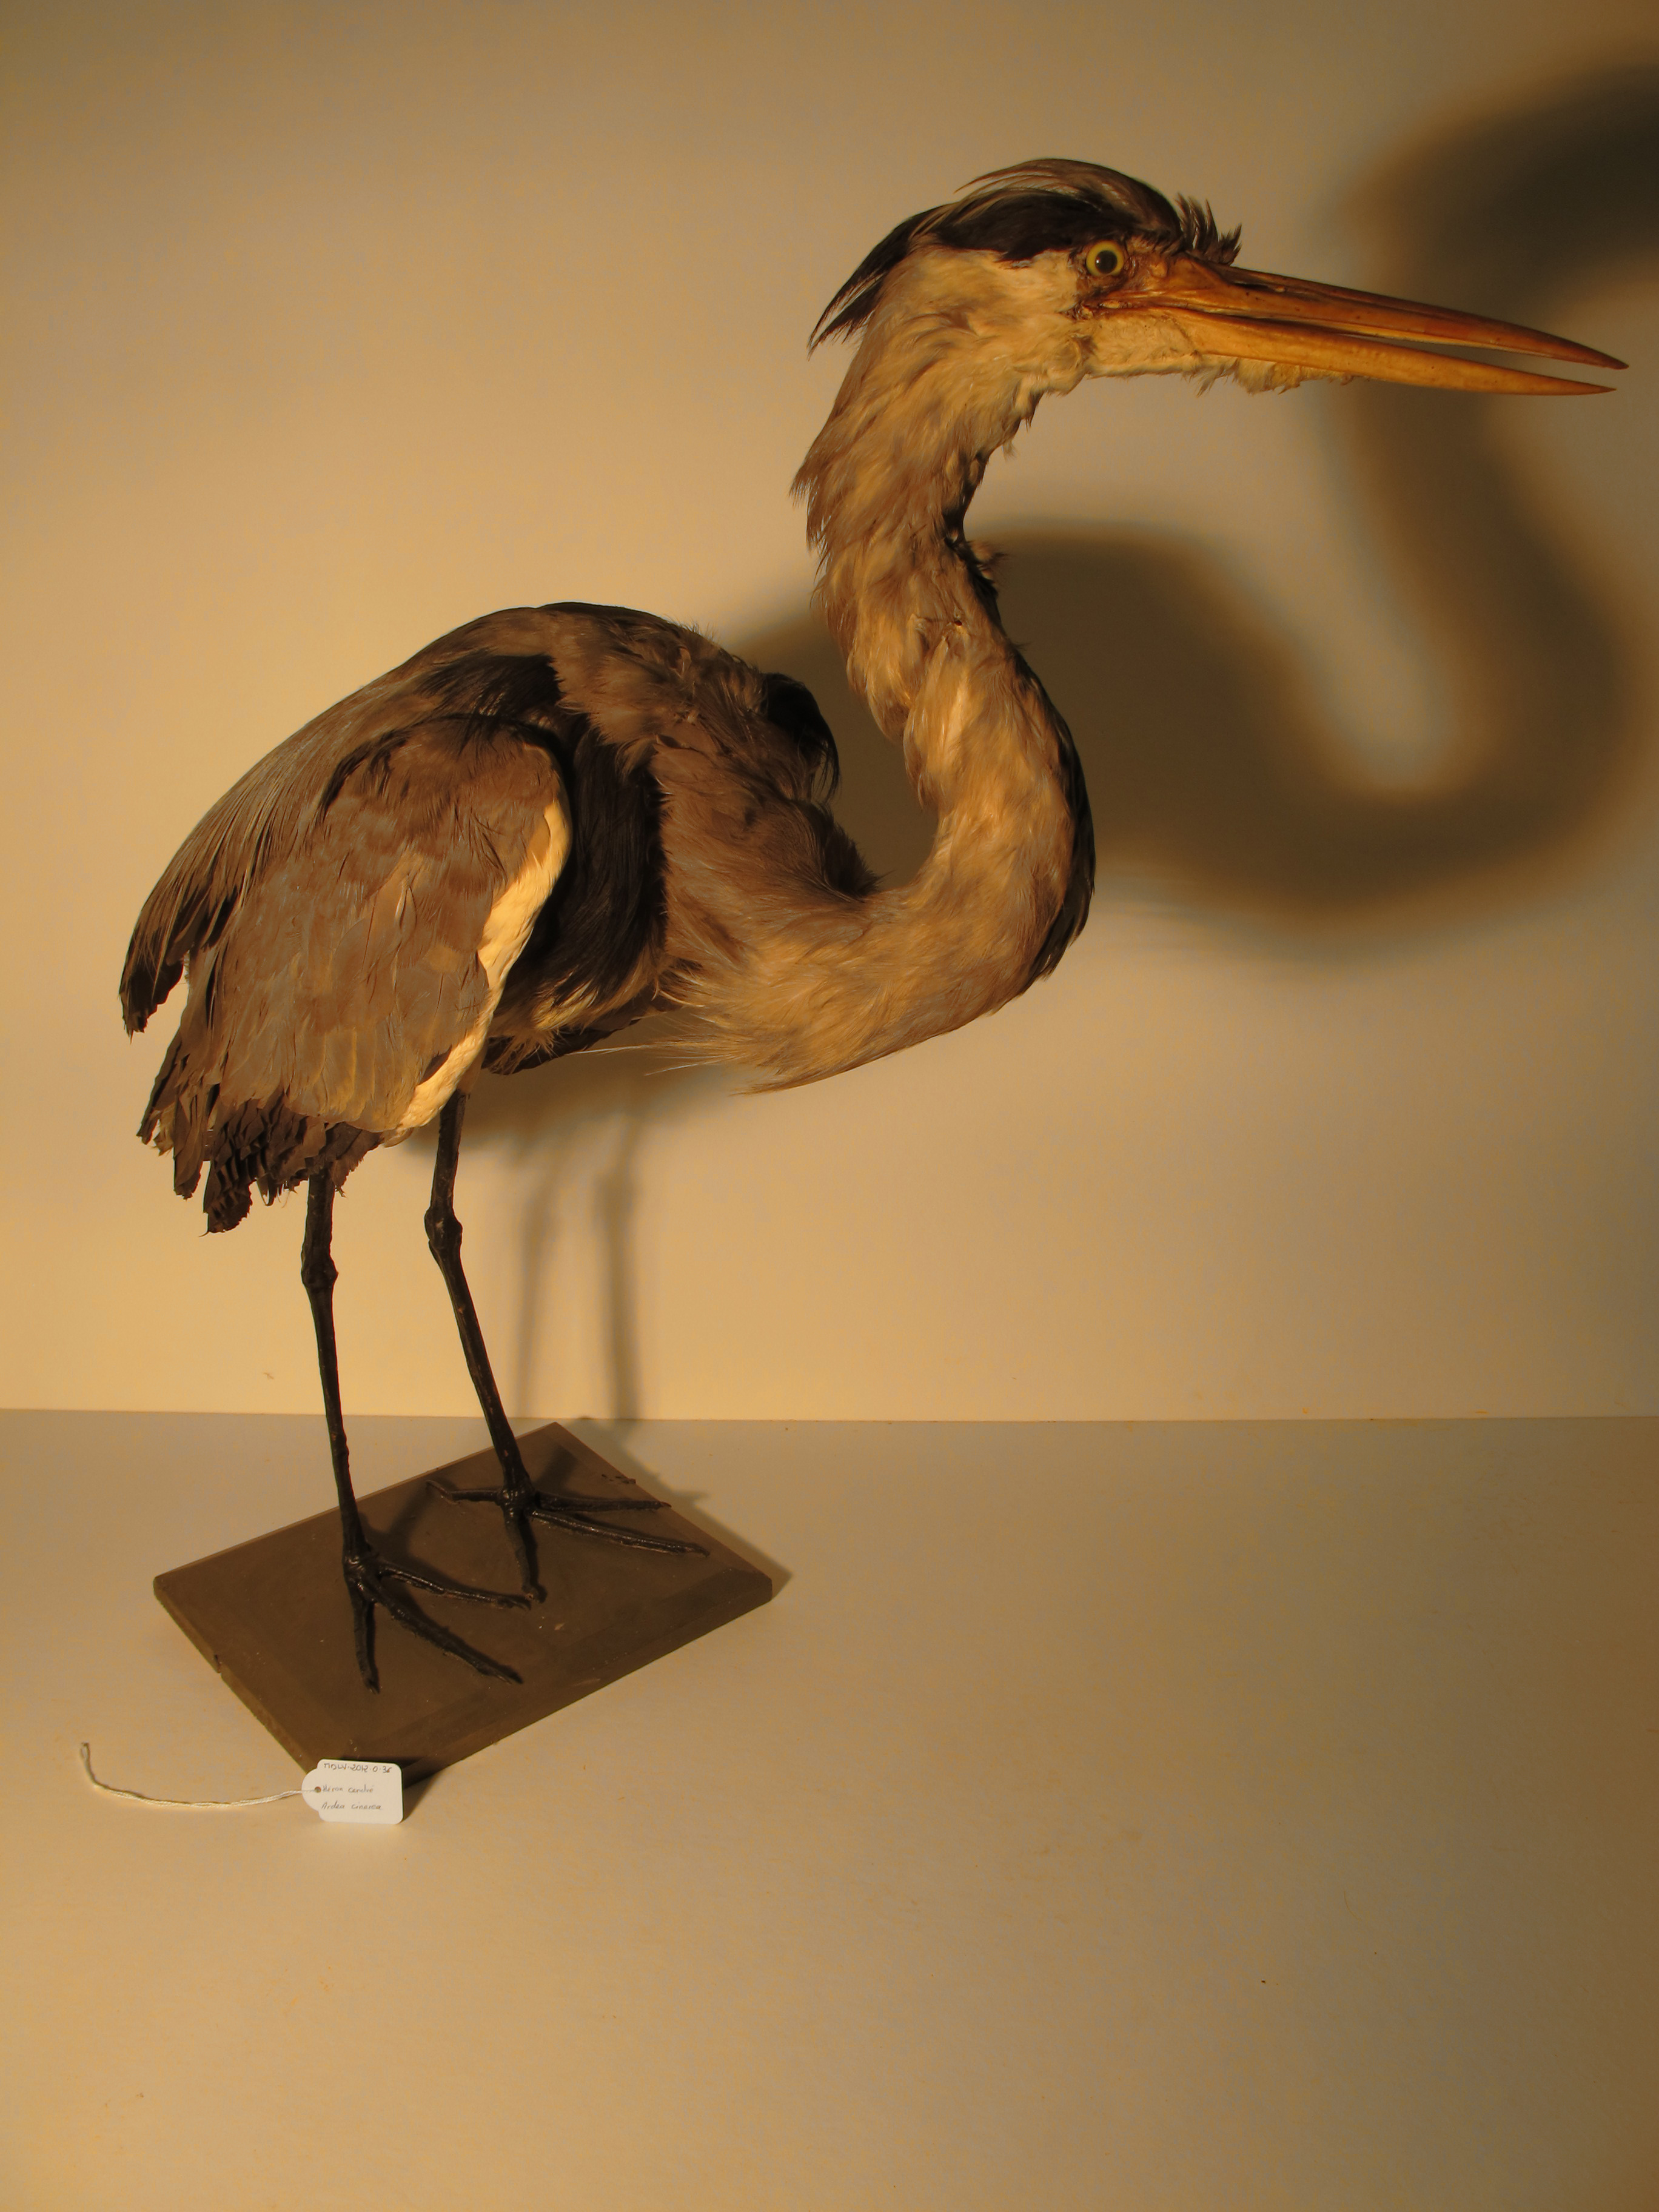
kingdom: Animalia
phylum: Chordata
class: Aves
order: Pelecaniformes
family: Ardeidae
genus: Ardea
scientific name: Ardea cinerea
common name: Grey Heron
